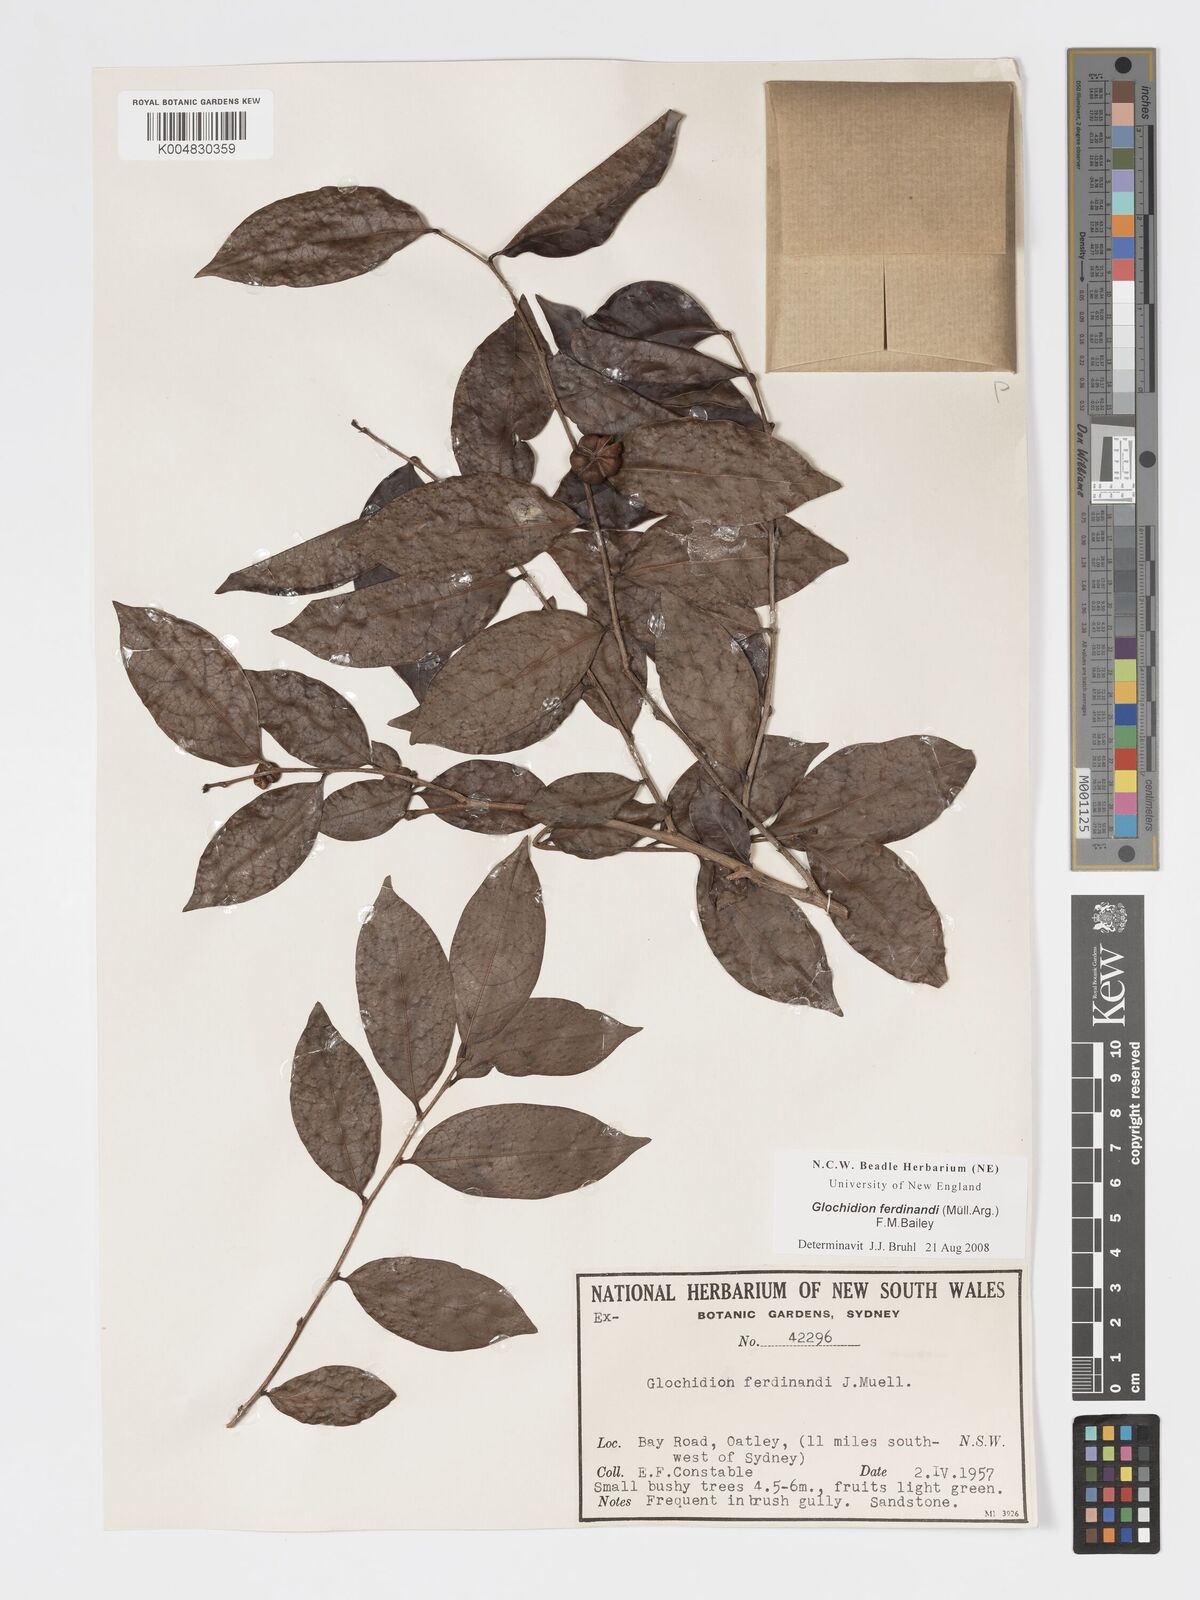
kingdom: Plantae
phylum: Tracheophyta
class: Magnoliopsida
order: Malpighiales
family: Phyllanthaceae
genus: Glochidion
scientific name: Glochidion ferdinandi
